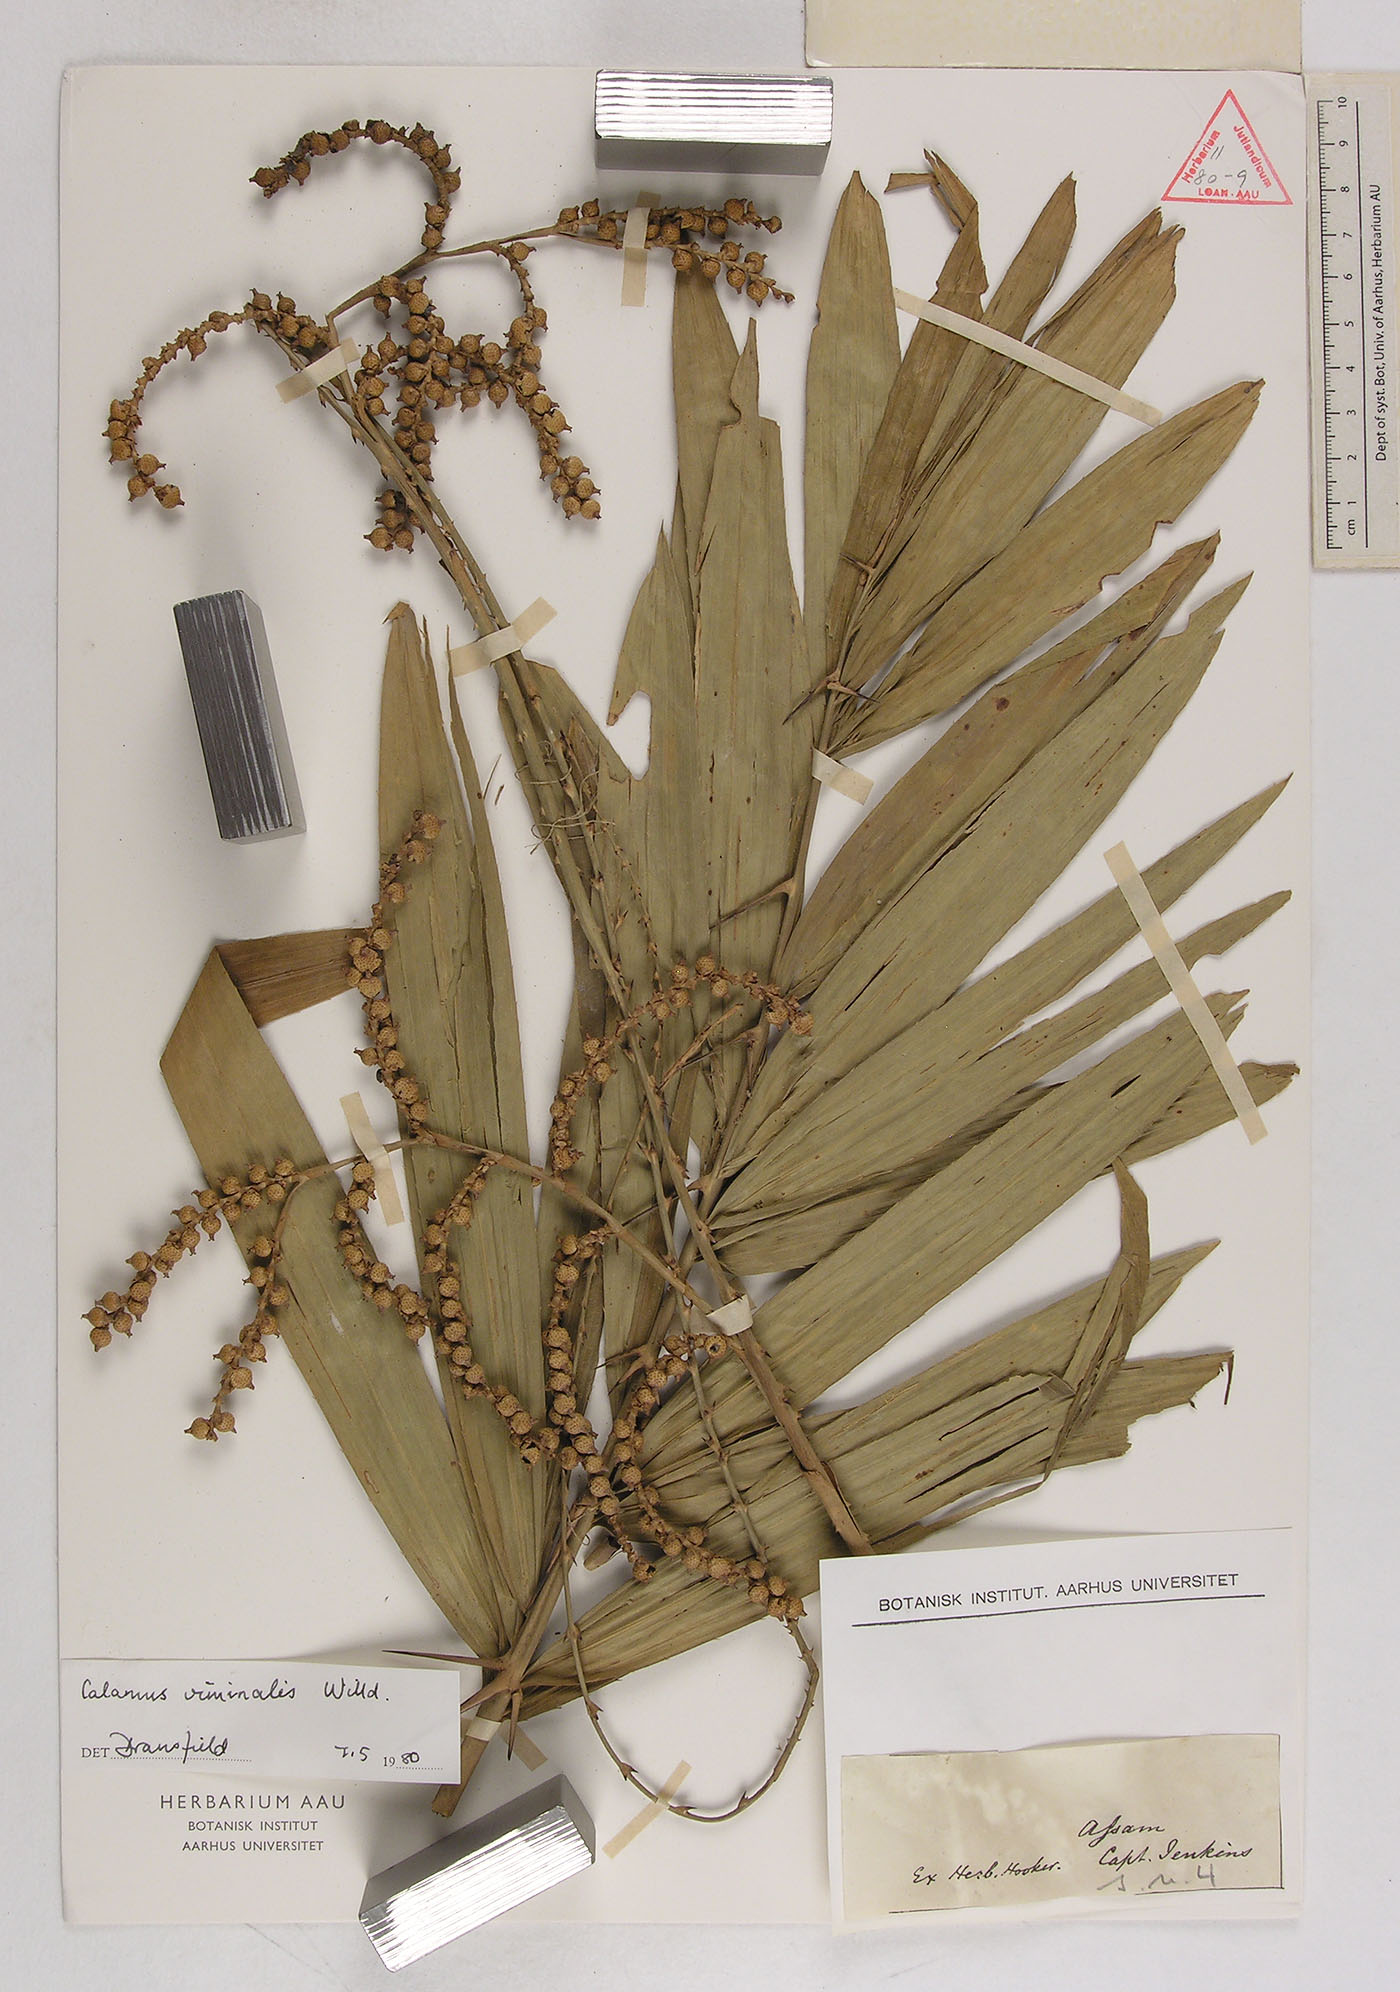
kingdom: Plantae
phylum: Tracheophyta
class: Liliopsida
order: Arecales
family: Arecaceae
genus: Calamus
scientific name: Calamus viminalis
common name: Osier-like rattan palm
